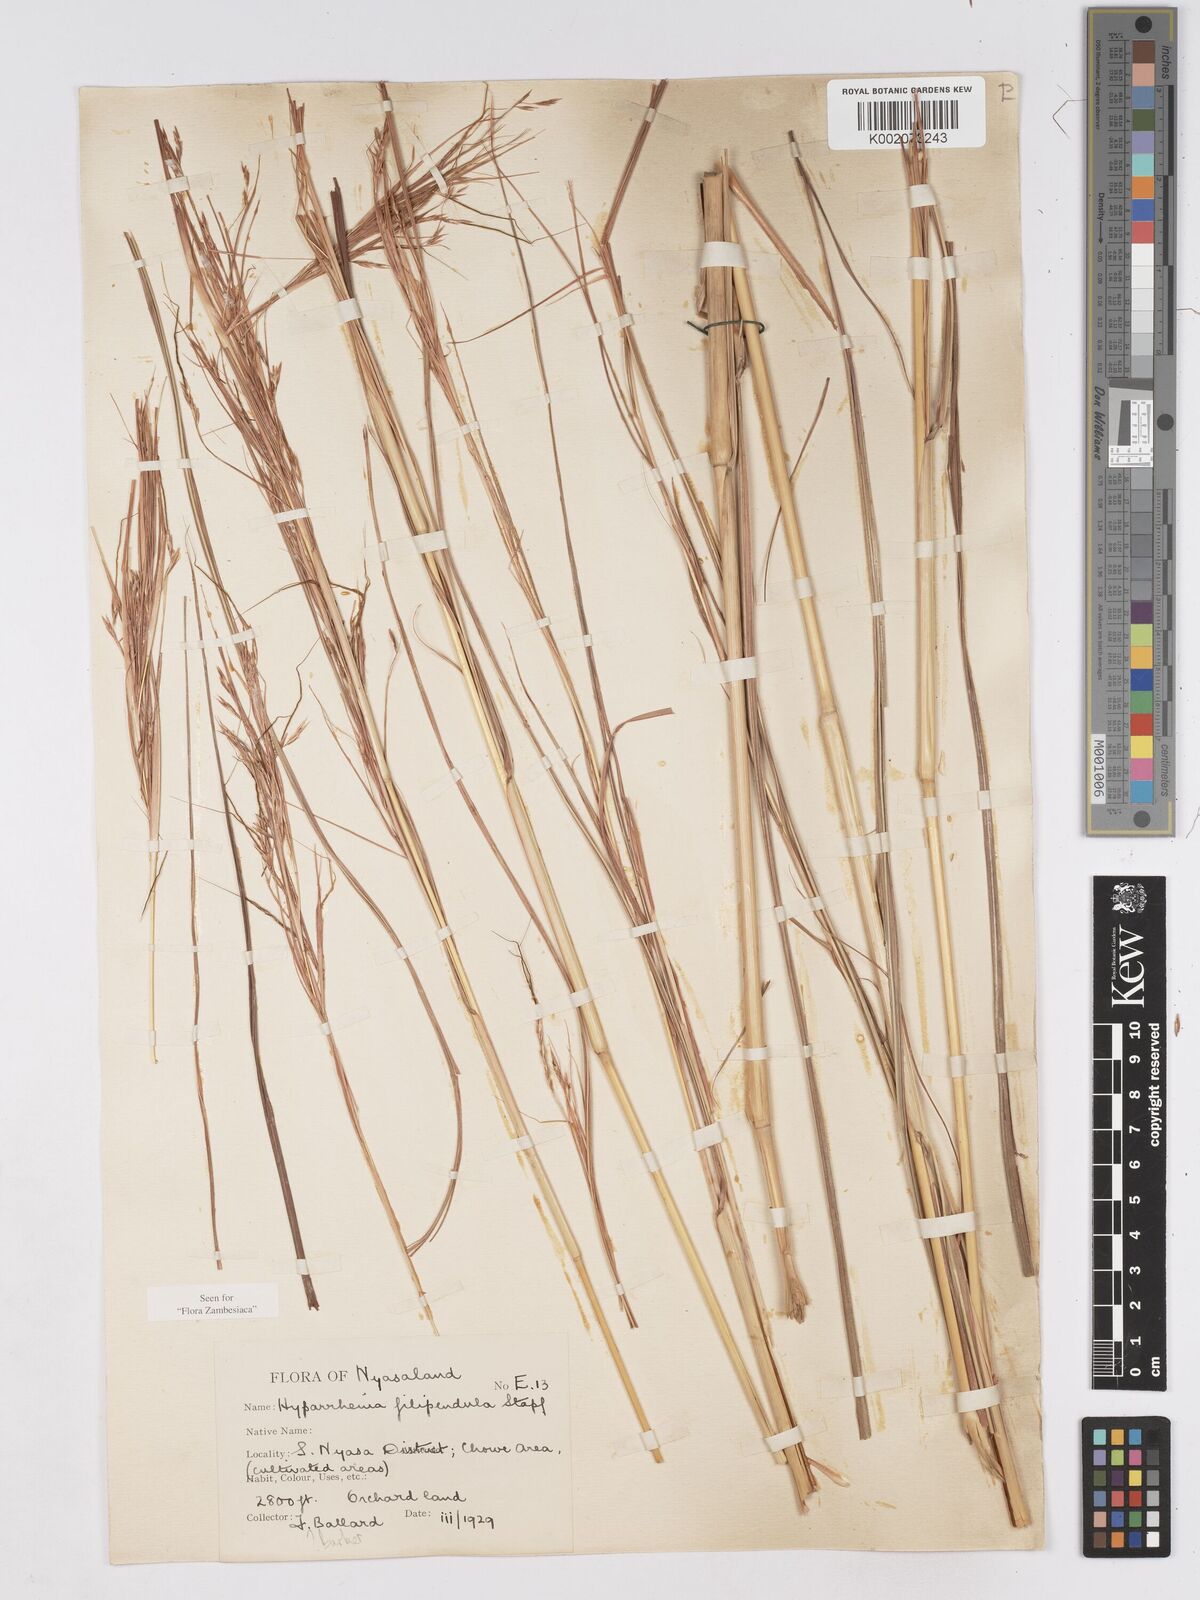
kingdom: Plantae
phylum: Tracheophyta
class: Liliopsida
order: Poales
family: Poaceae
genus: Hyparrhenia
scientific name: Hyparrhenia filipendula
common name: Tambookie grass
